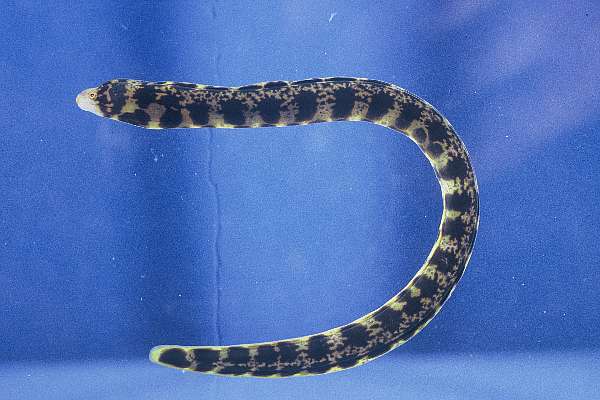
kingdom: Animalia
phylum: Chordata
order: Anguilliformes
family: Muraenidae
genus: Echidna
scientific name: Echidna nebulosa
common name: Snowflake moray
